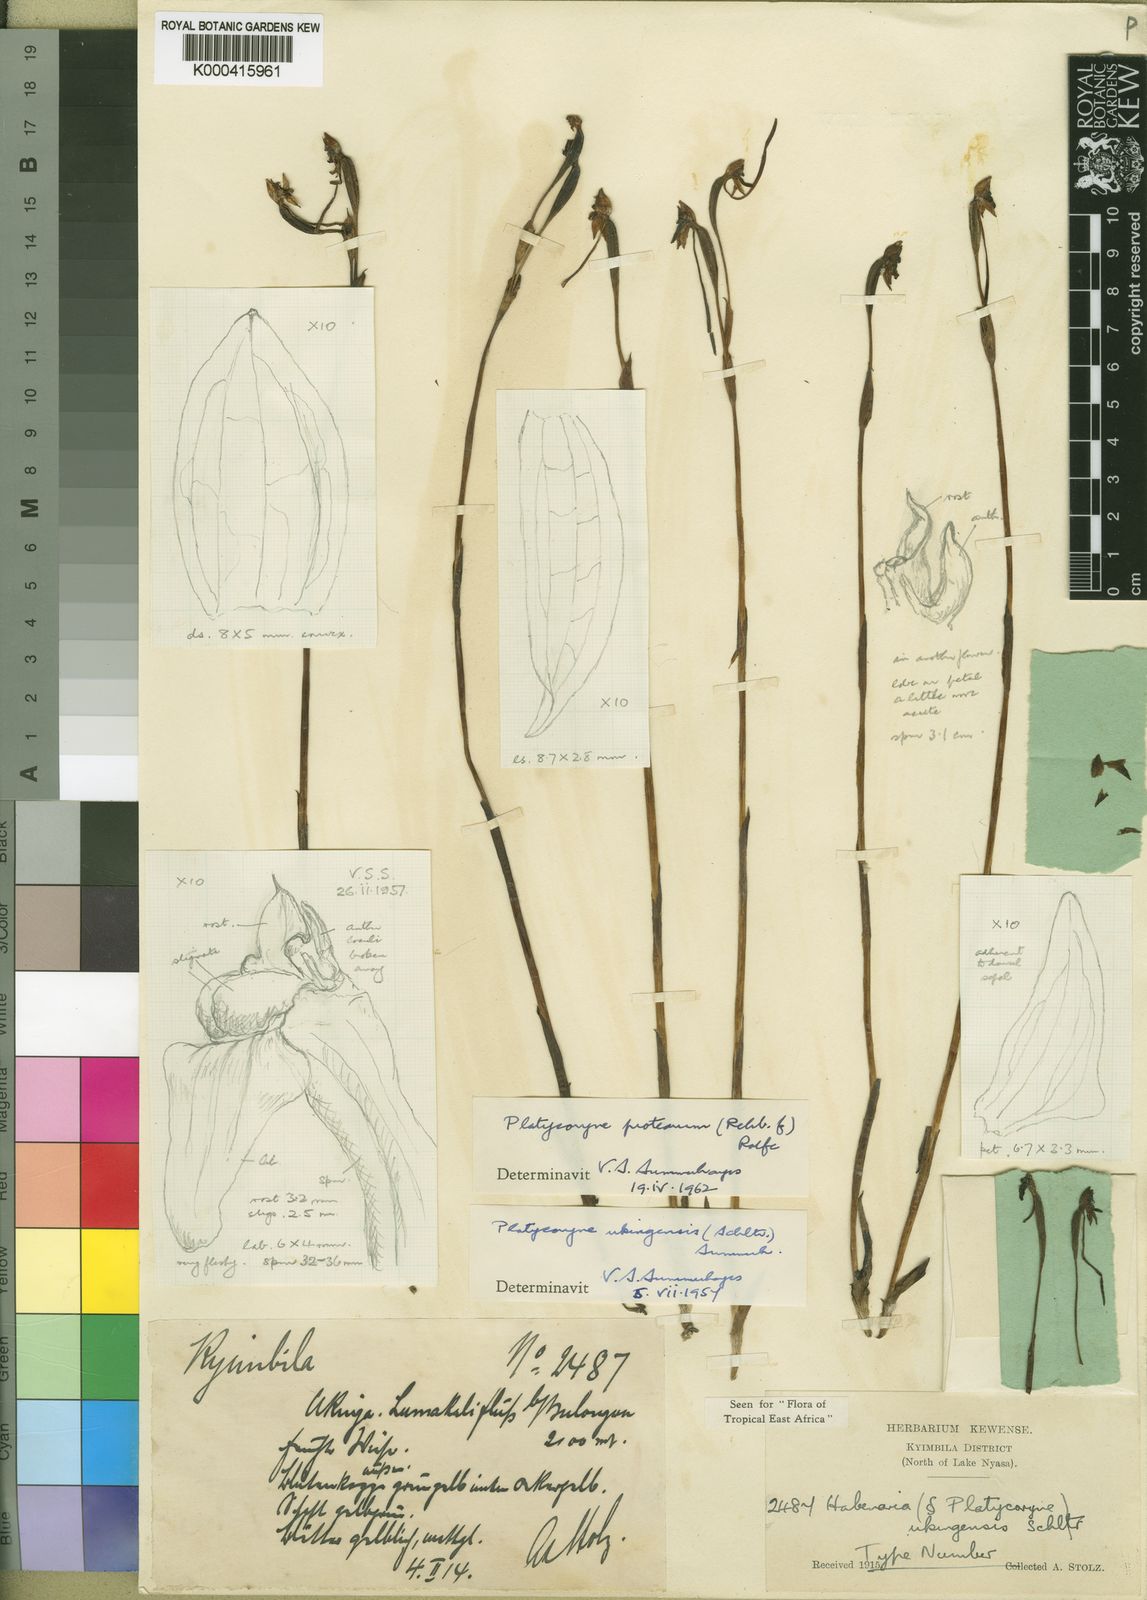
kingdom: Plantae
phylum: Tracheophyta
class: Liliopsida
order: Asparagales
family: Orchidaceae
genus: Platycoryne
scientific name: Platycoryne protearum
